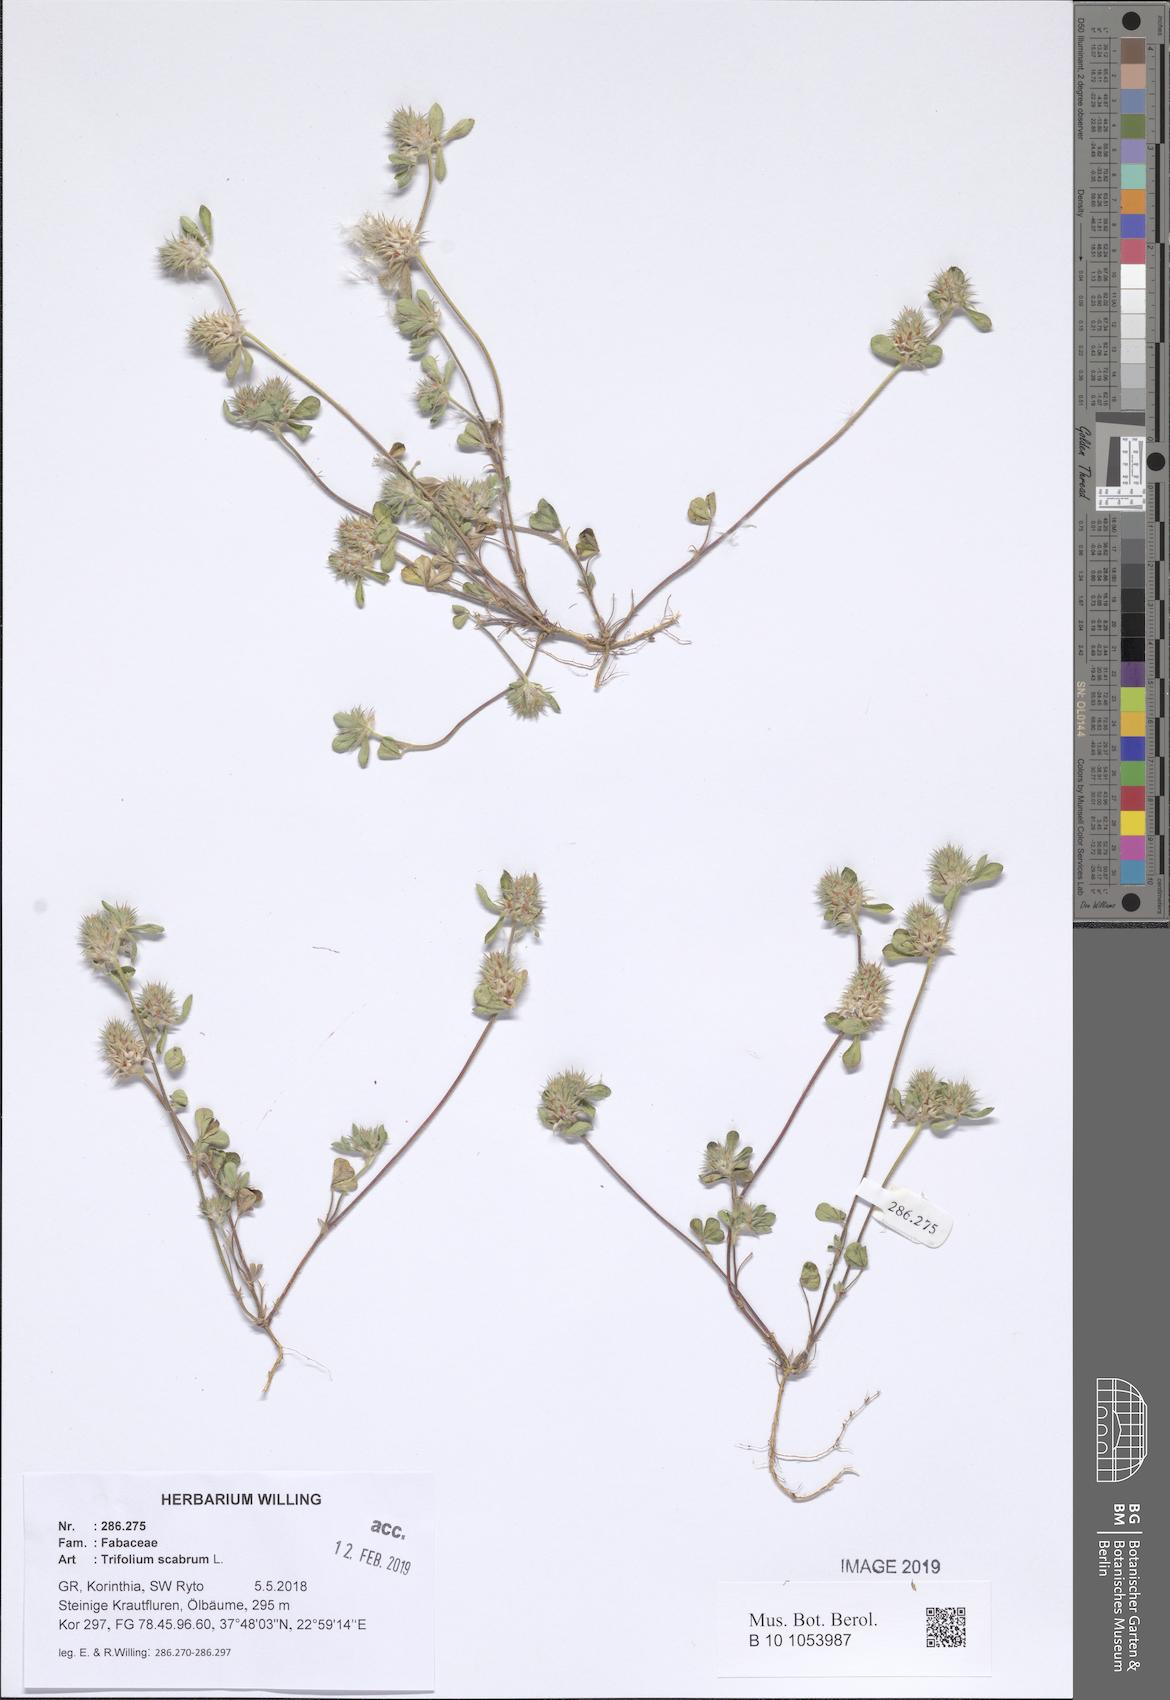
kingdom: Plantae
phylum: Tracheophyta
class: Magnoliopsida
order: Fabales
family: Fabaceae
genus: Trifolium
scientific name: Trifolium scabrum
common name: Rough clover
